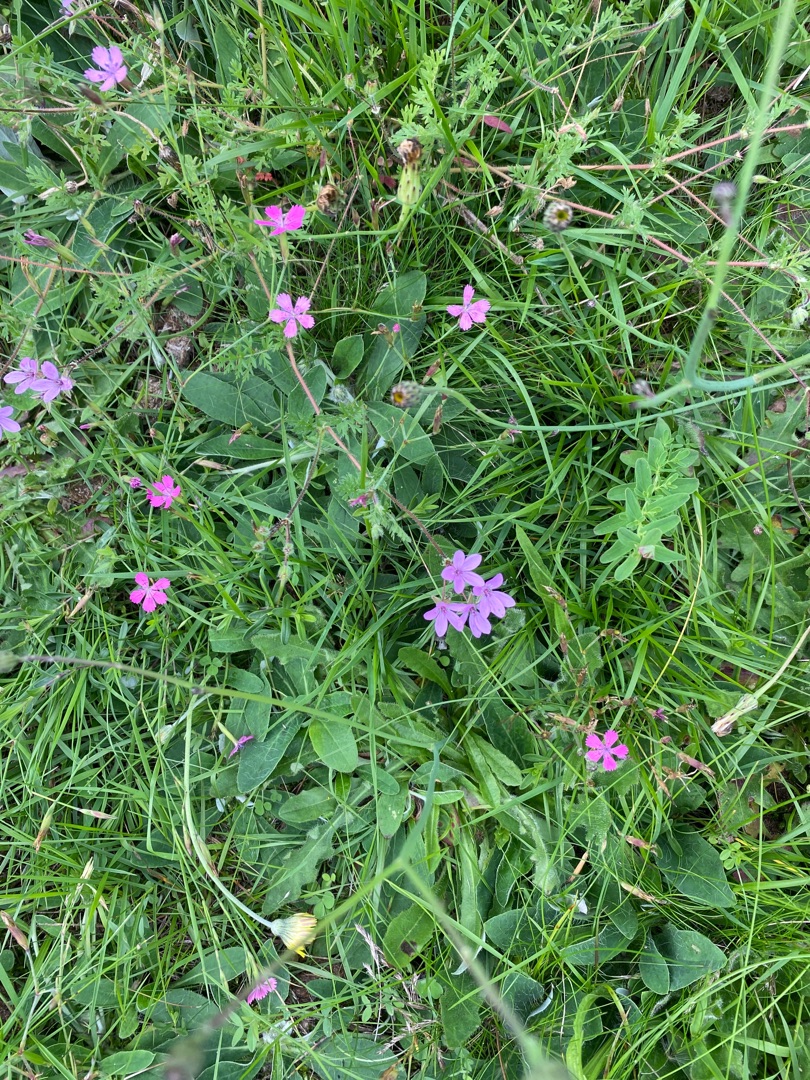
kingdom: Plantae
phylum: Tracheophyta
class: Magnoliopsida
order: Caryophyllales
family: Caryophyllaceae
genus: Dianthus
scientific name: Dianthus deltoides
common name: Bakke-nellike
